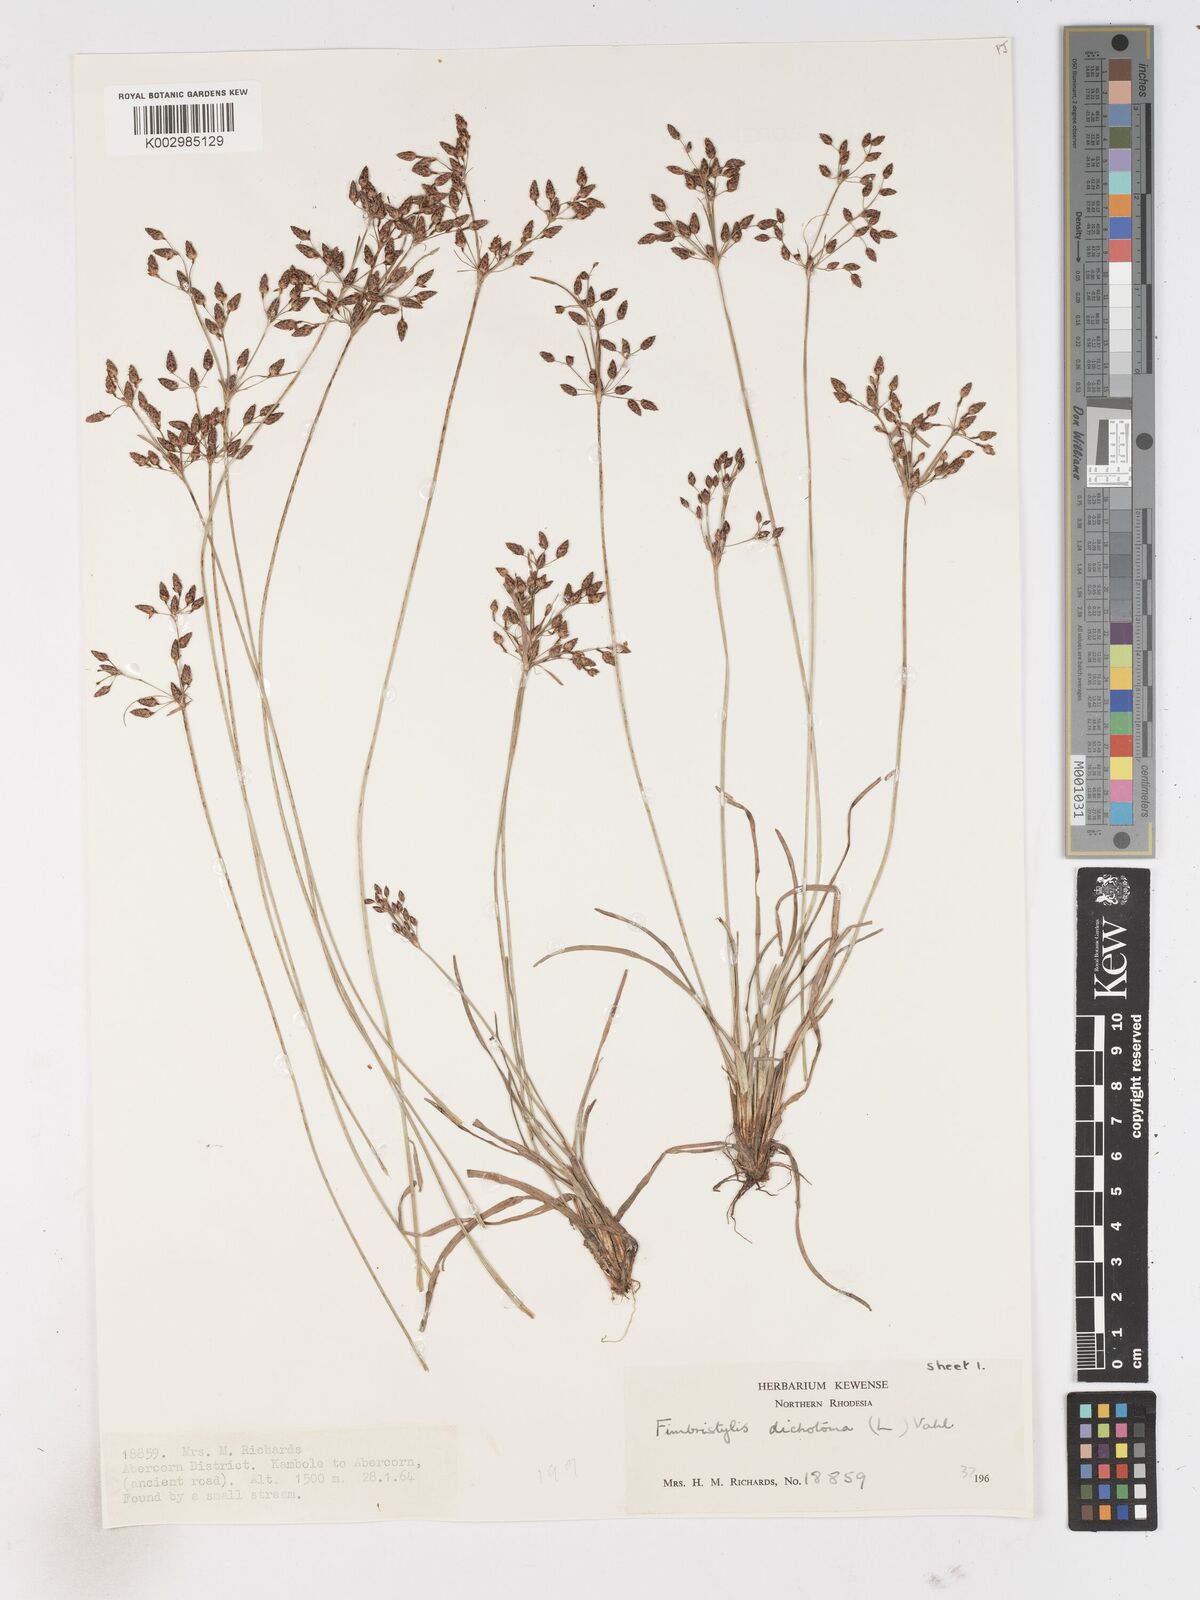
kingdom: Plantae
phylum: Tracheophyta
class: Liliopsida
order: Poales
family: Cyperaceae
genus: Fimbristylis
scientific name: Fimbristylis dichotoma
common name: Forked fimbry
